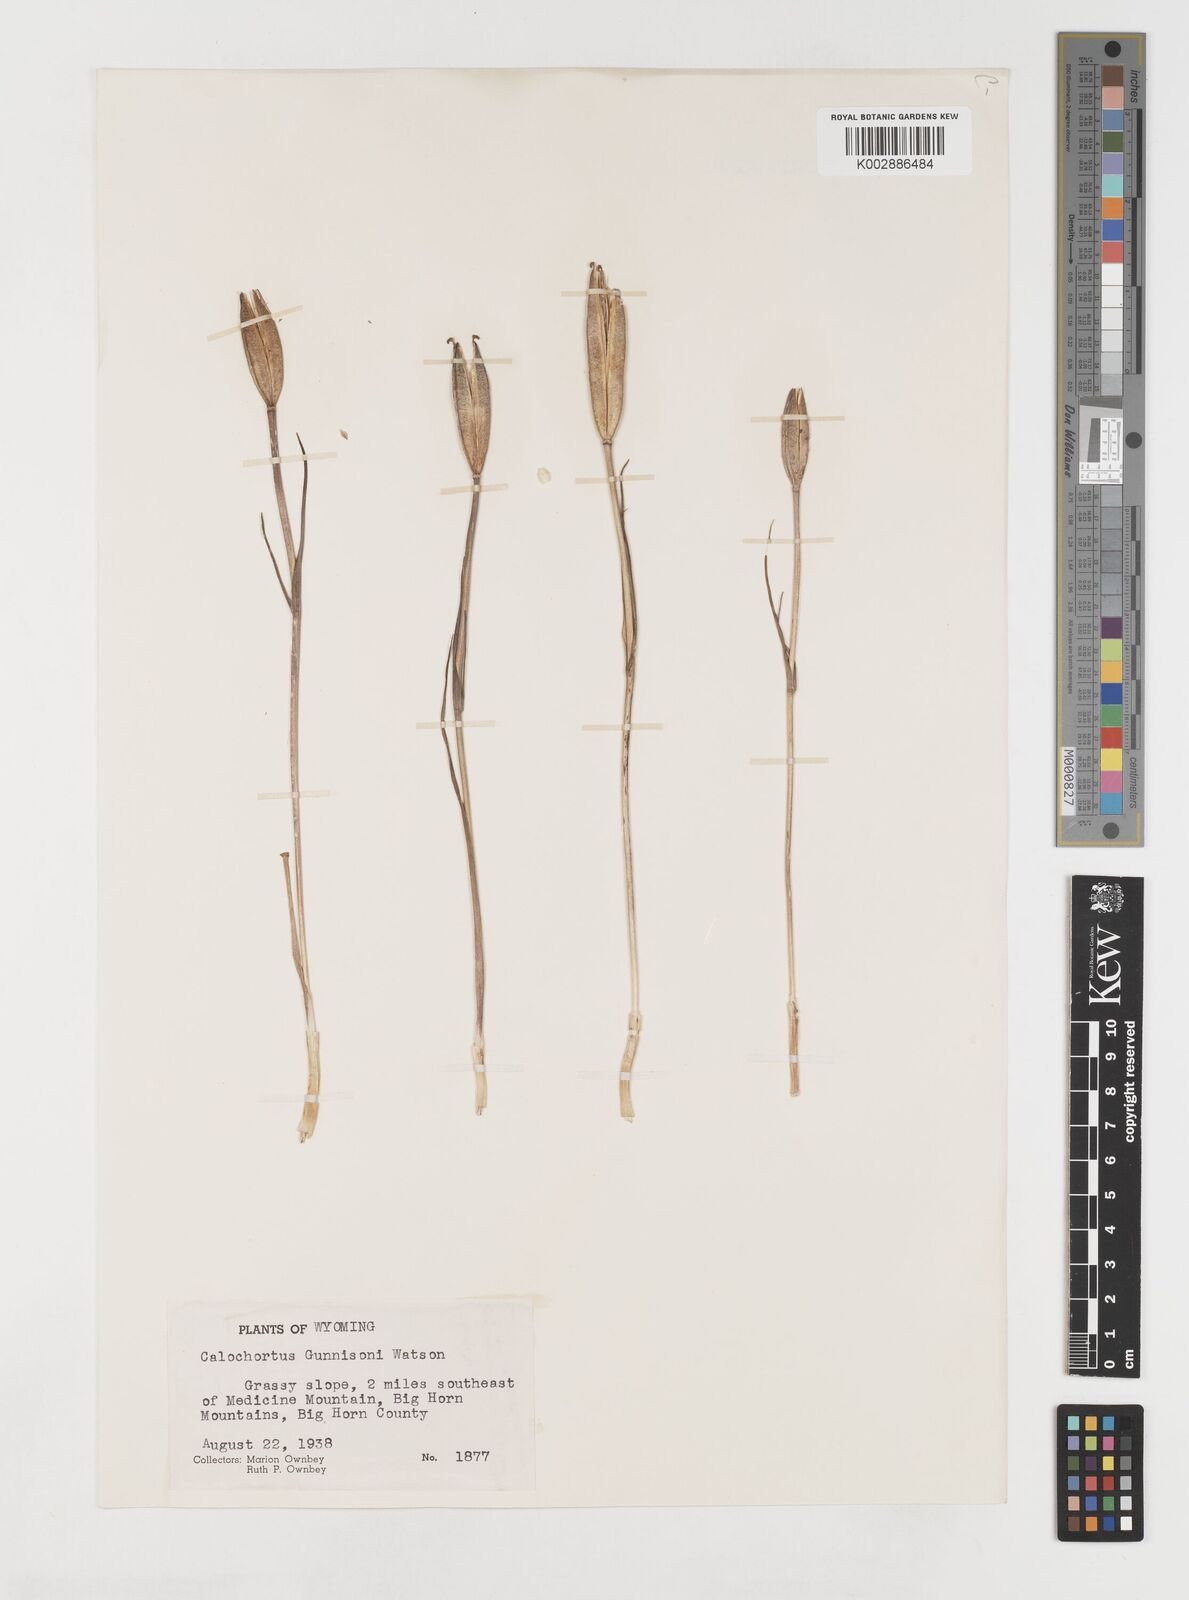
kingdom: Plantae
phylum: Tracheophyta
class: Liliopsida
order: Liliales
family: Liliaceae
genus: Calochortus
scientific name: Calochortus gunnisonii
